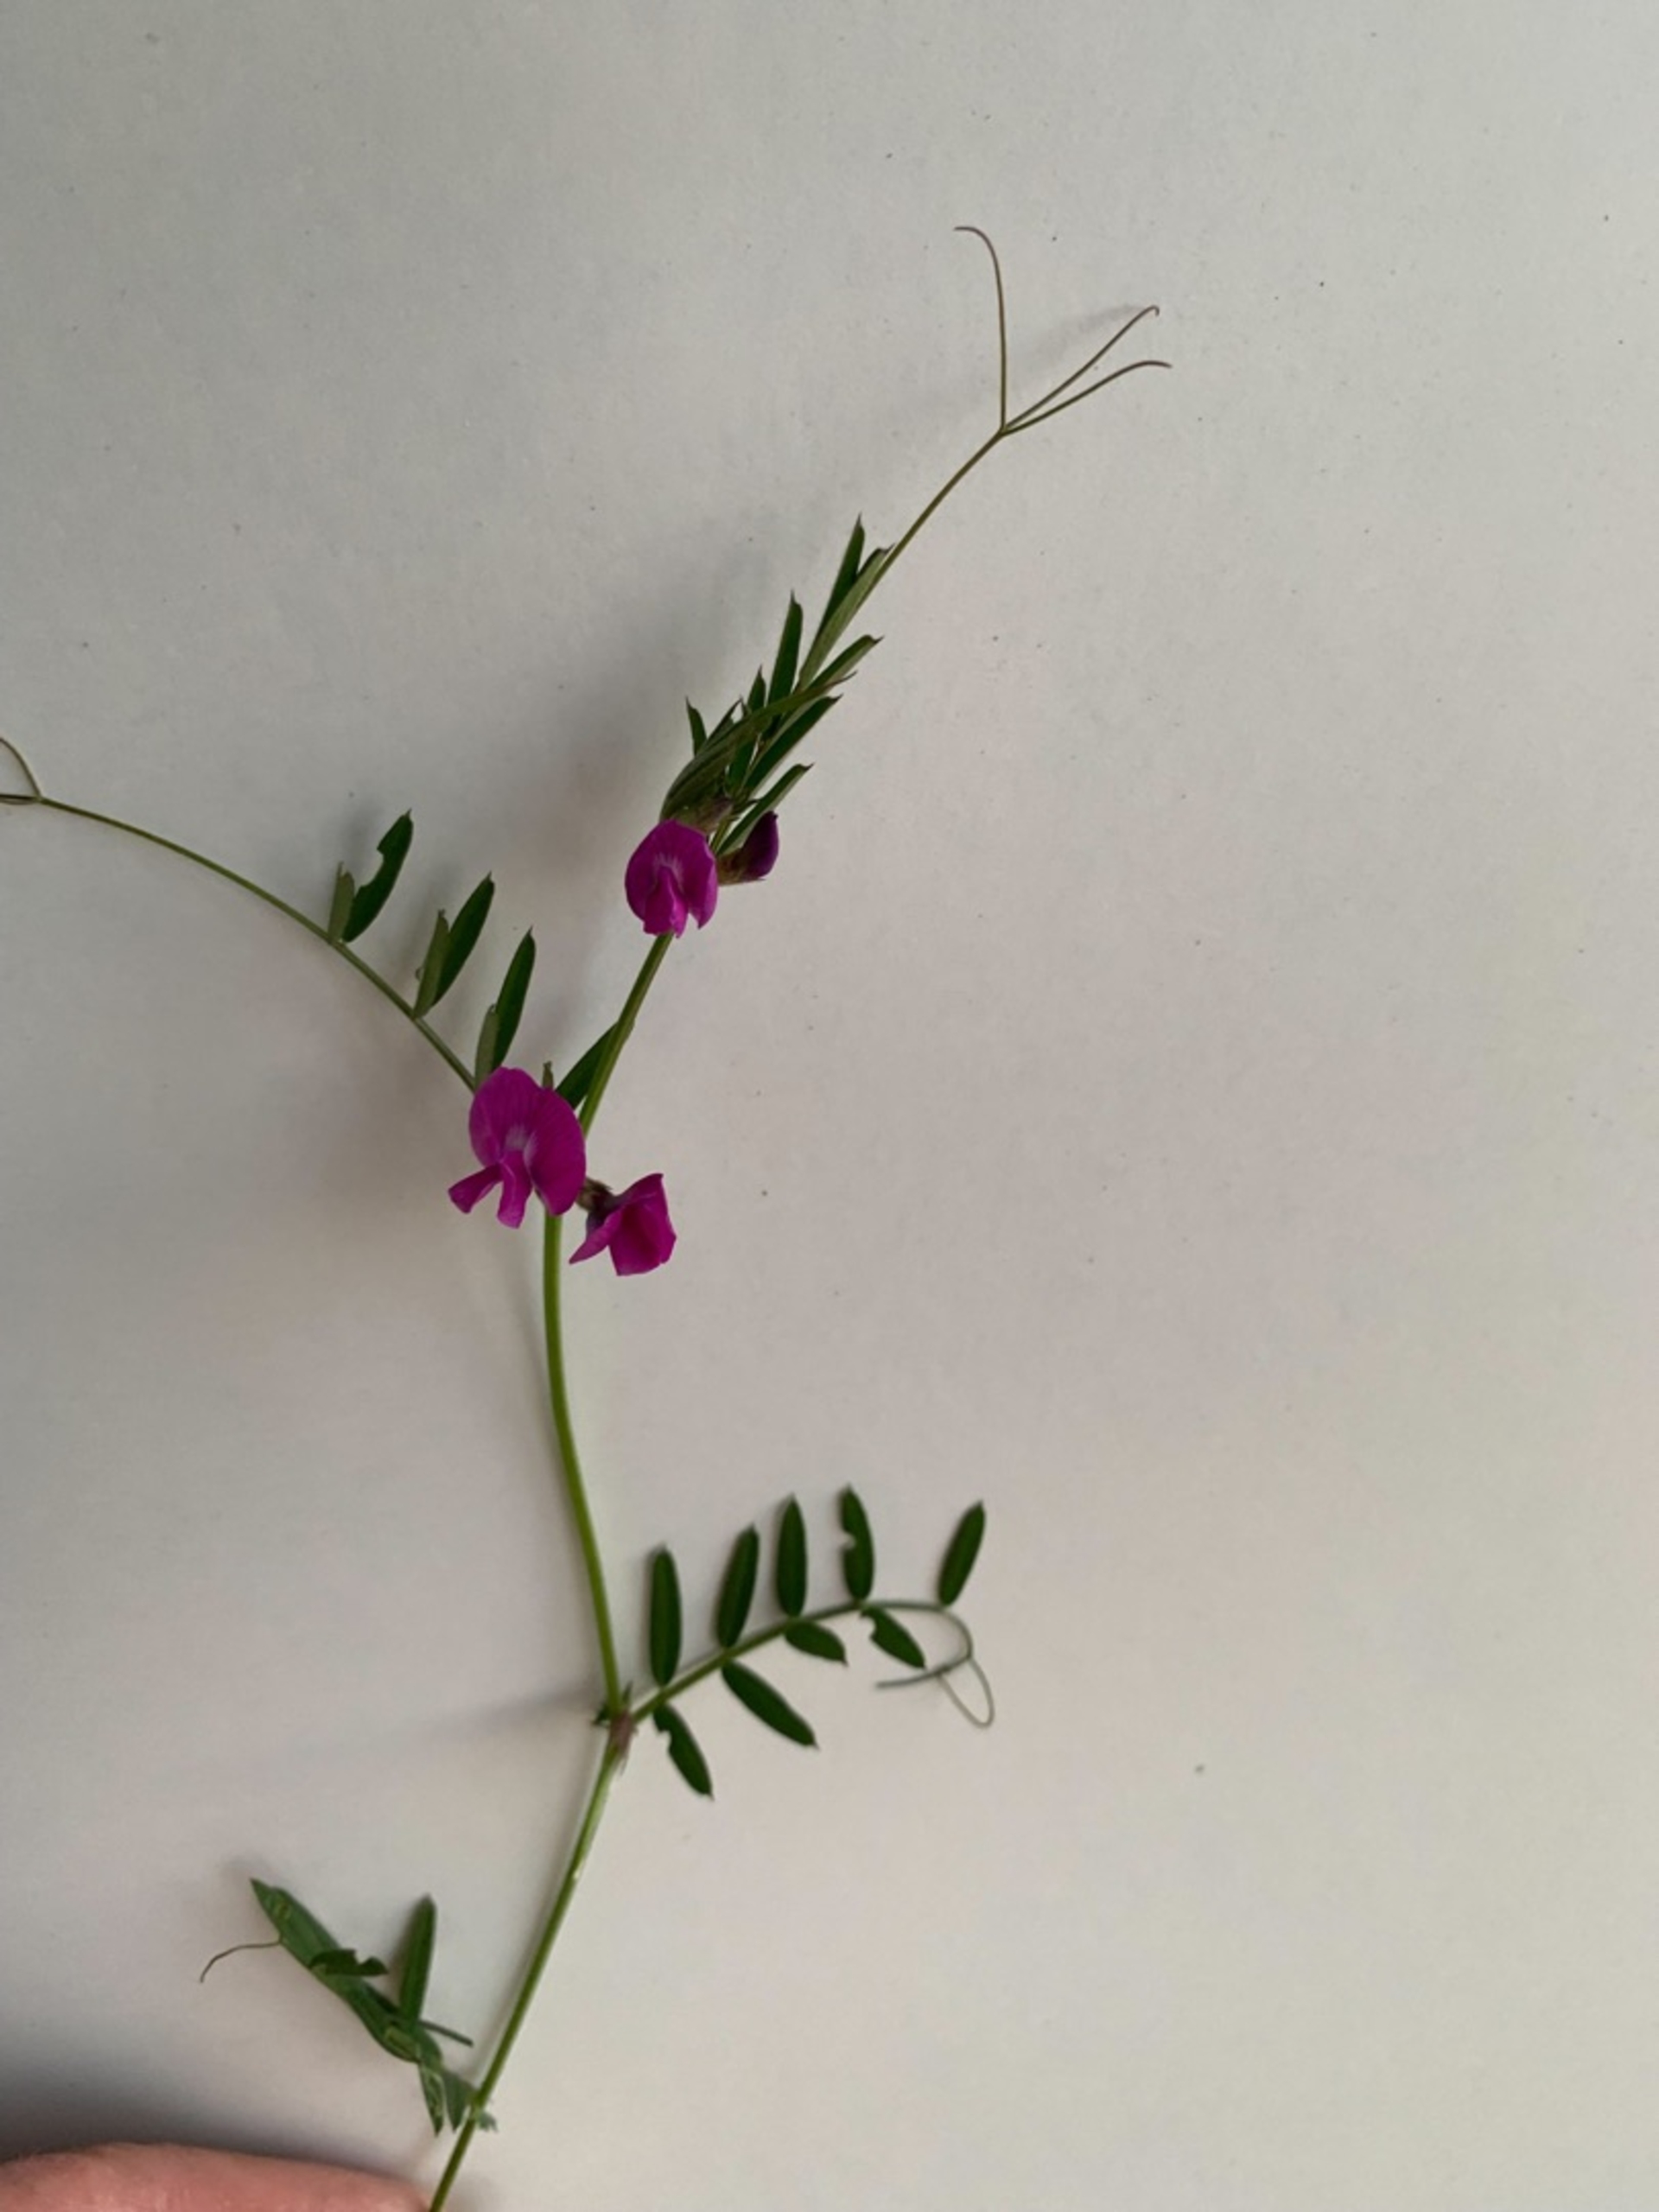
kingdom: Plantae
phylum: Tracheophyta
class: Magnoliopsida
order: Fabales
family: Fabaceae
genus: Vicia
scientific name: Vicia sativa
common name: Smalbladet vikke
